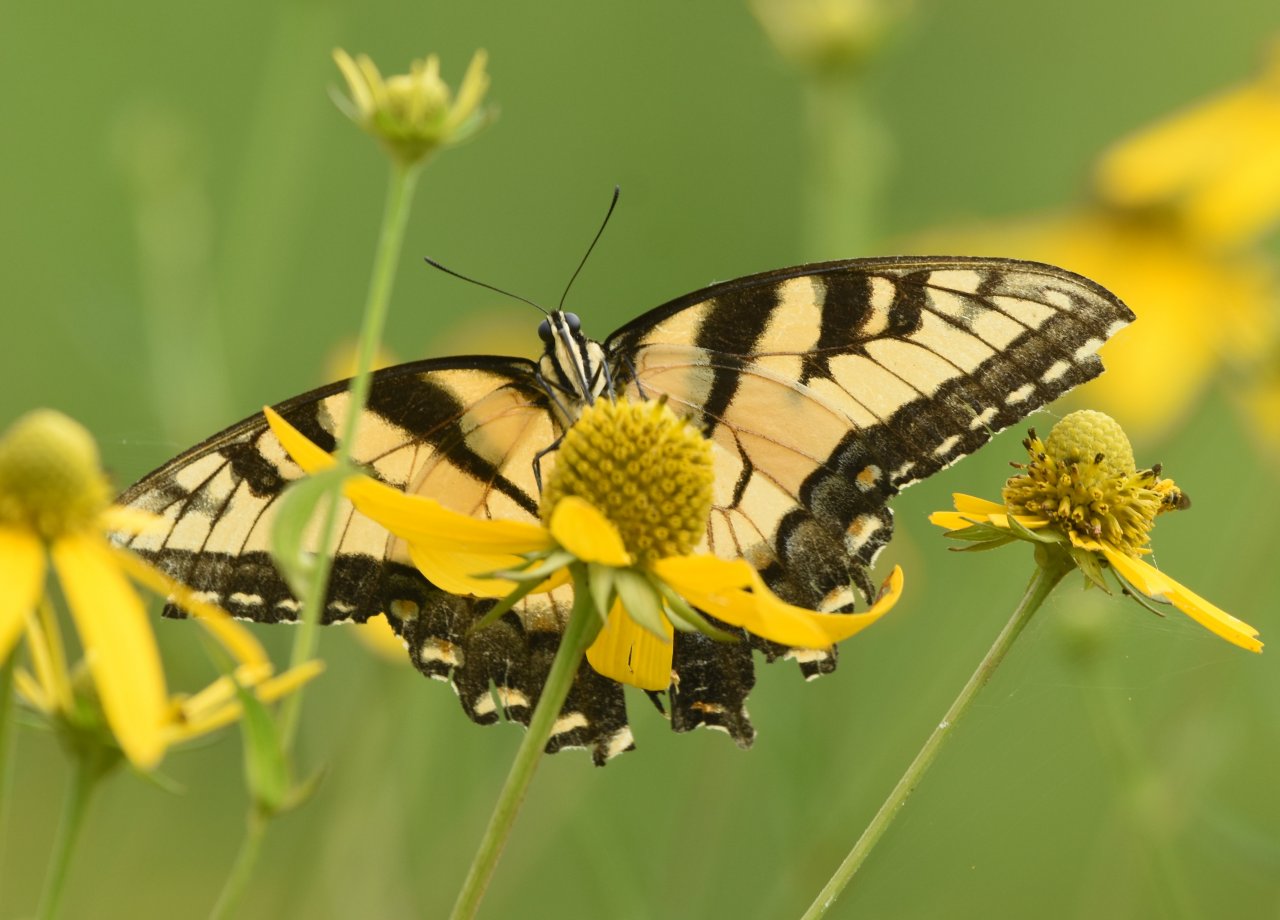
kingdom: Animalia
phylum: Arthropoda
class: Insecta
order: Lepidoptera
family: Papilionidae
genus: Pterourus
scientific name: Pterourus glaucus
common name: Eastern Tiger Swallowtail
